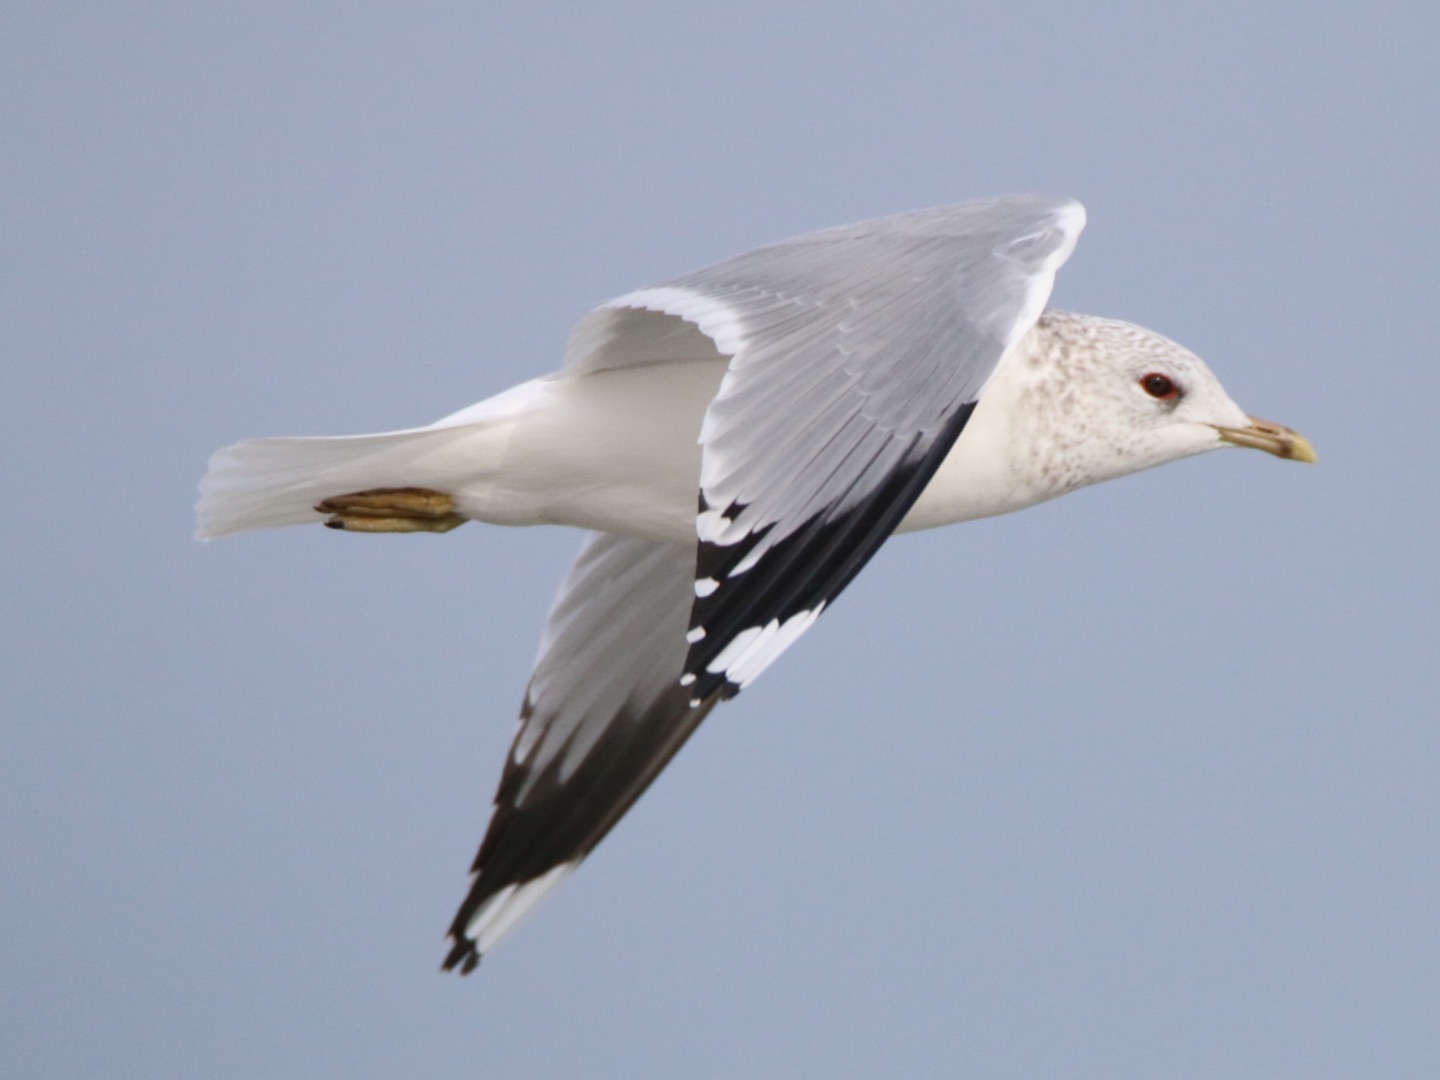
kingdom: Animalia
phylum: Chordata
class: Aves
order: Charadriiformes
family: Laridae
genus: Larus
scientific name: Larus canus
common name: Stormmåge
